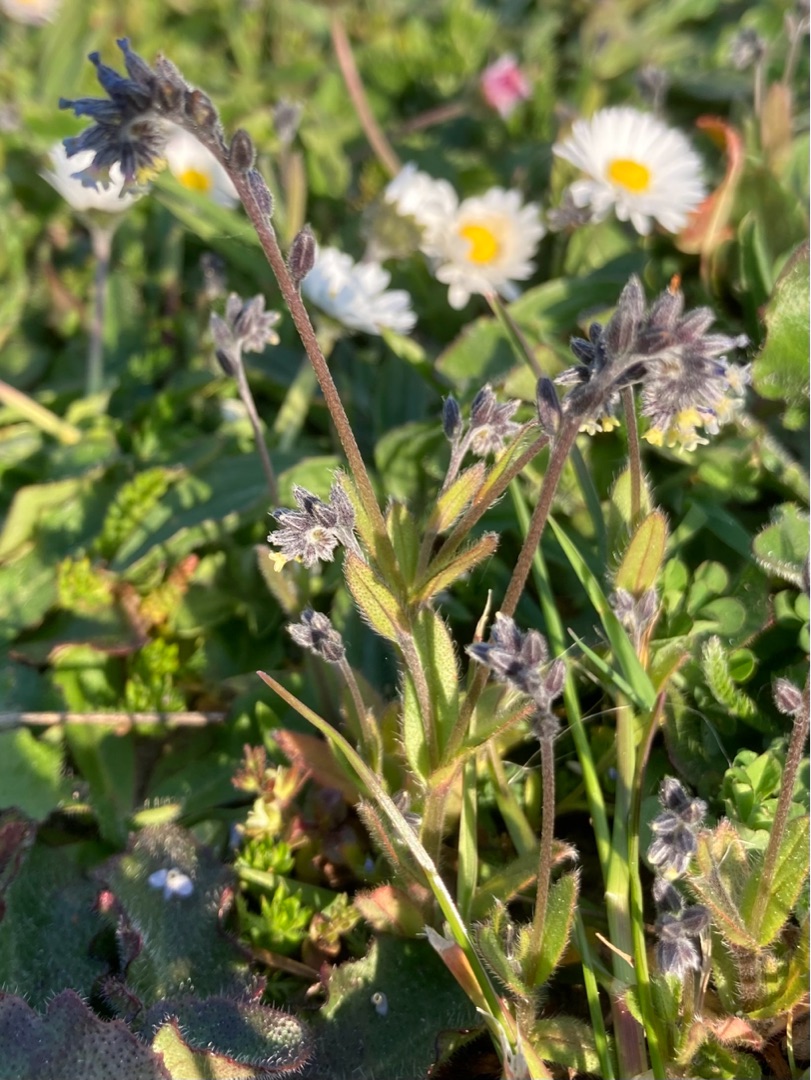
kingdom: Plantae
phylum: Tracheophyta
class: Magnoliopsida
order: Boraginales
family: Boraginaceae
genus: Myosotis
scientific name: Myosotis discolor
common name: Forskelligfarvet forglemmigej
